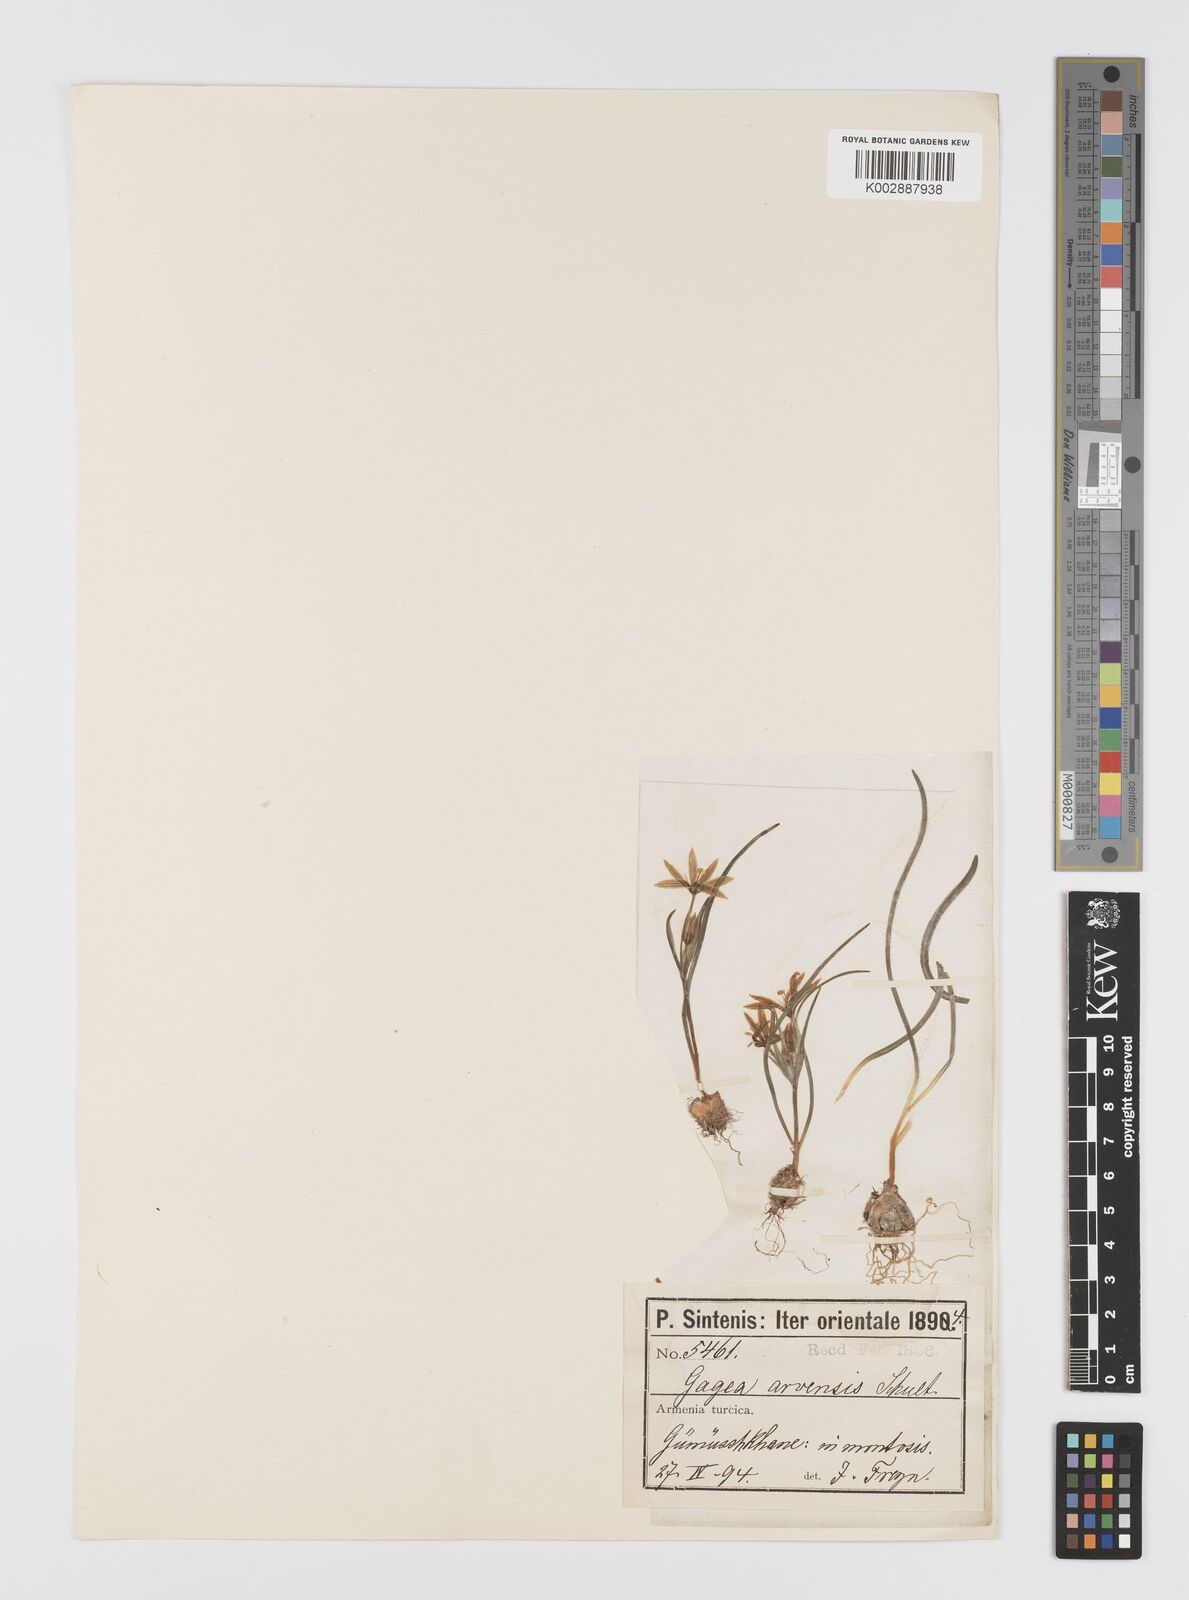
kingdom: Plantae
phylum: Tracheophyta
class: Liliopsida
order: Liliales
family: Liliaceae
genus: Gagea
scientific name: Gagea dubia
